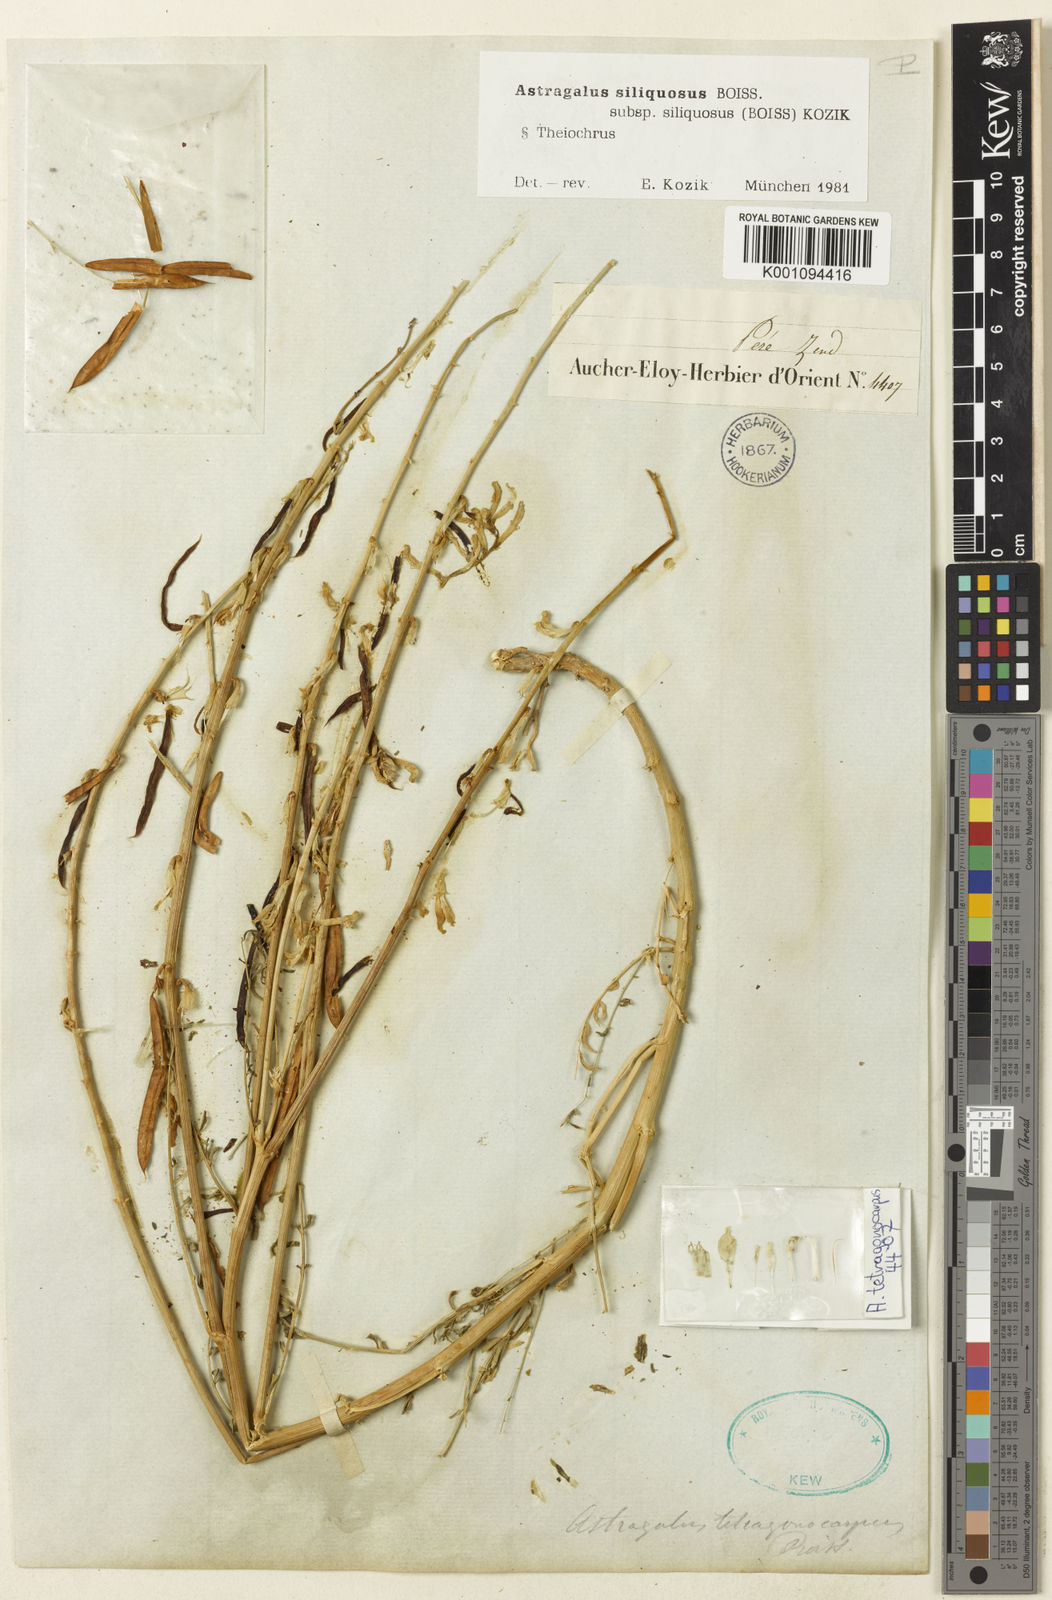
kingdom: Plantae
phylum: Tracheophyta
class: Magnoliopsida
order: Fabales
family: Fabaceae
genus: Astragalus
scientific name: Astragalus
